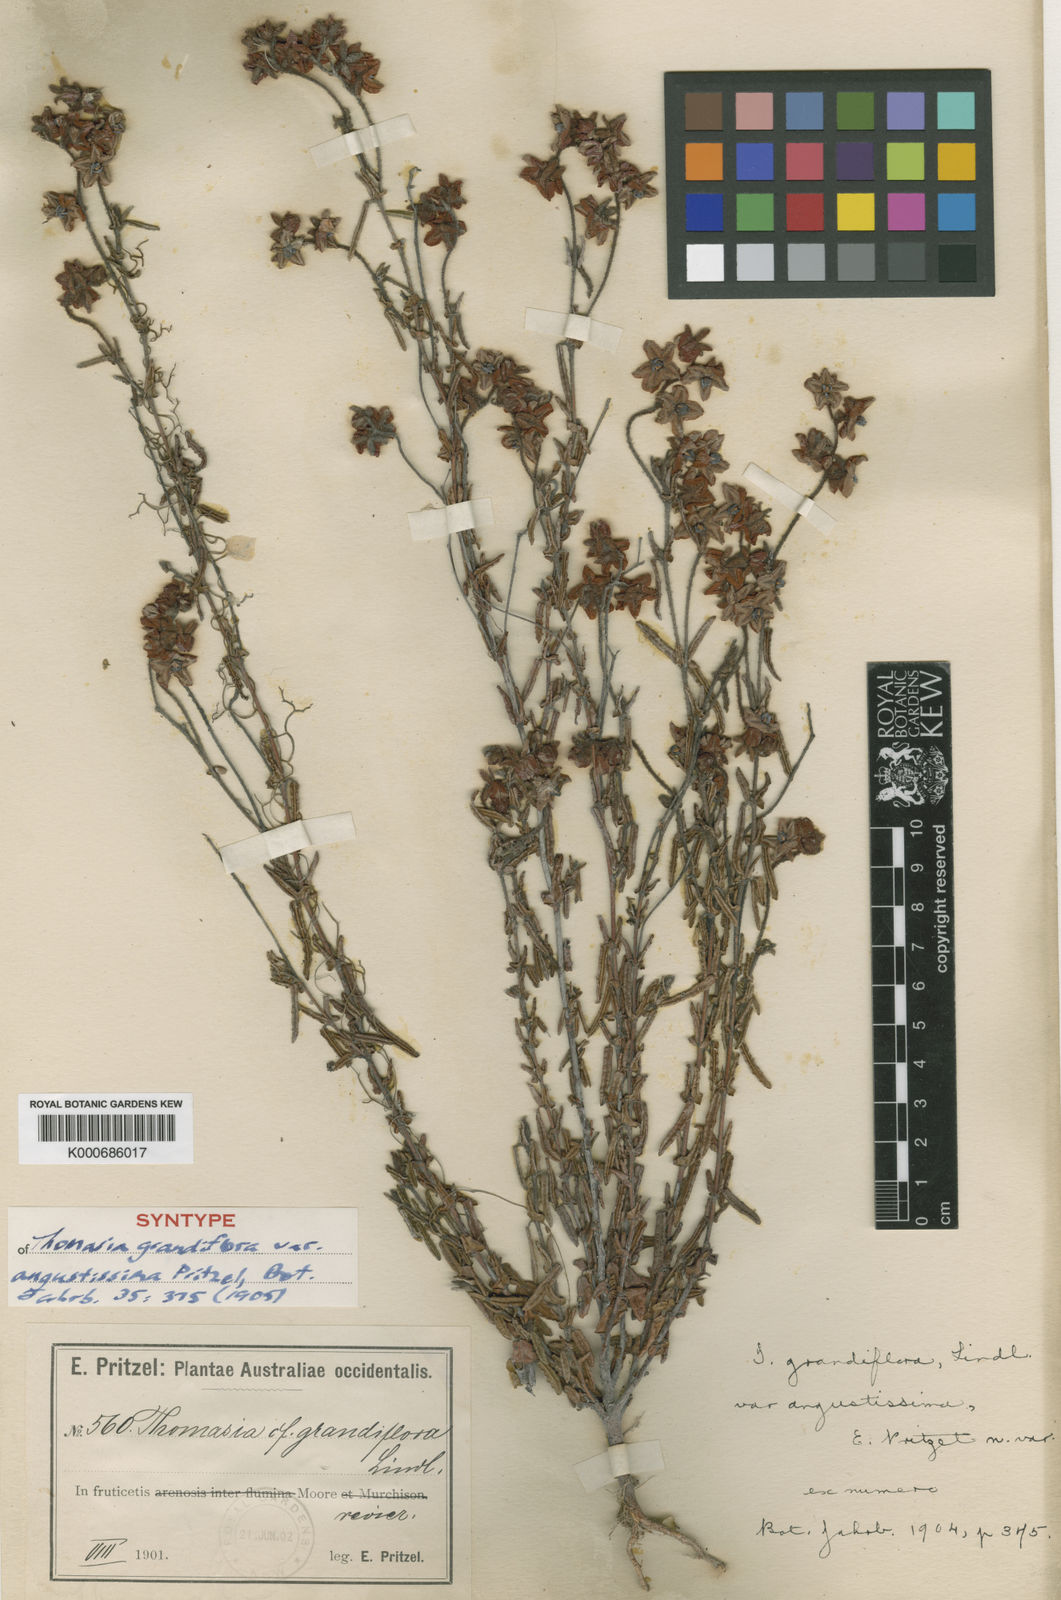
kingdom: Plantae
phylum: Tracheophyta
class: Magnoliopsida
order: Malvales
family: Malvaceae
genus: Thomasia
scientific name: Thomasia grandiflora
